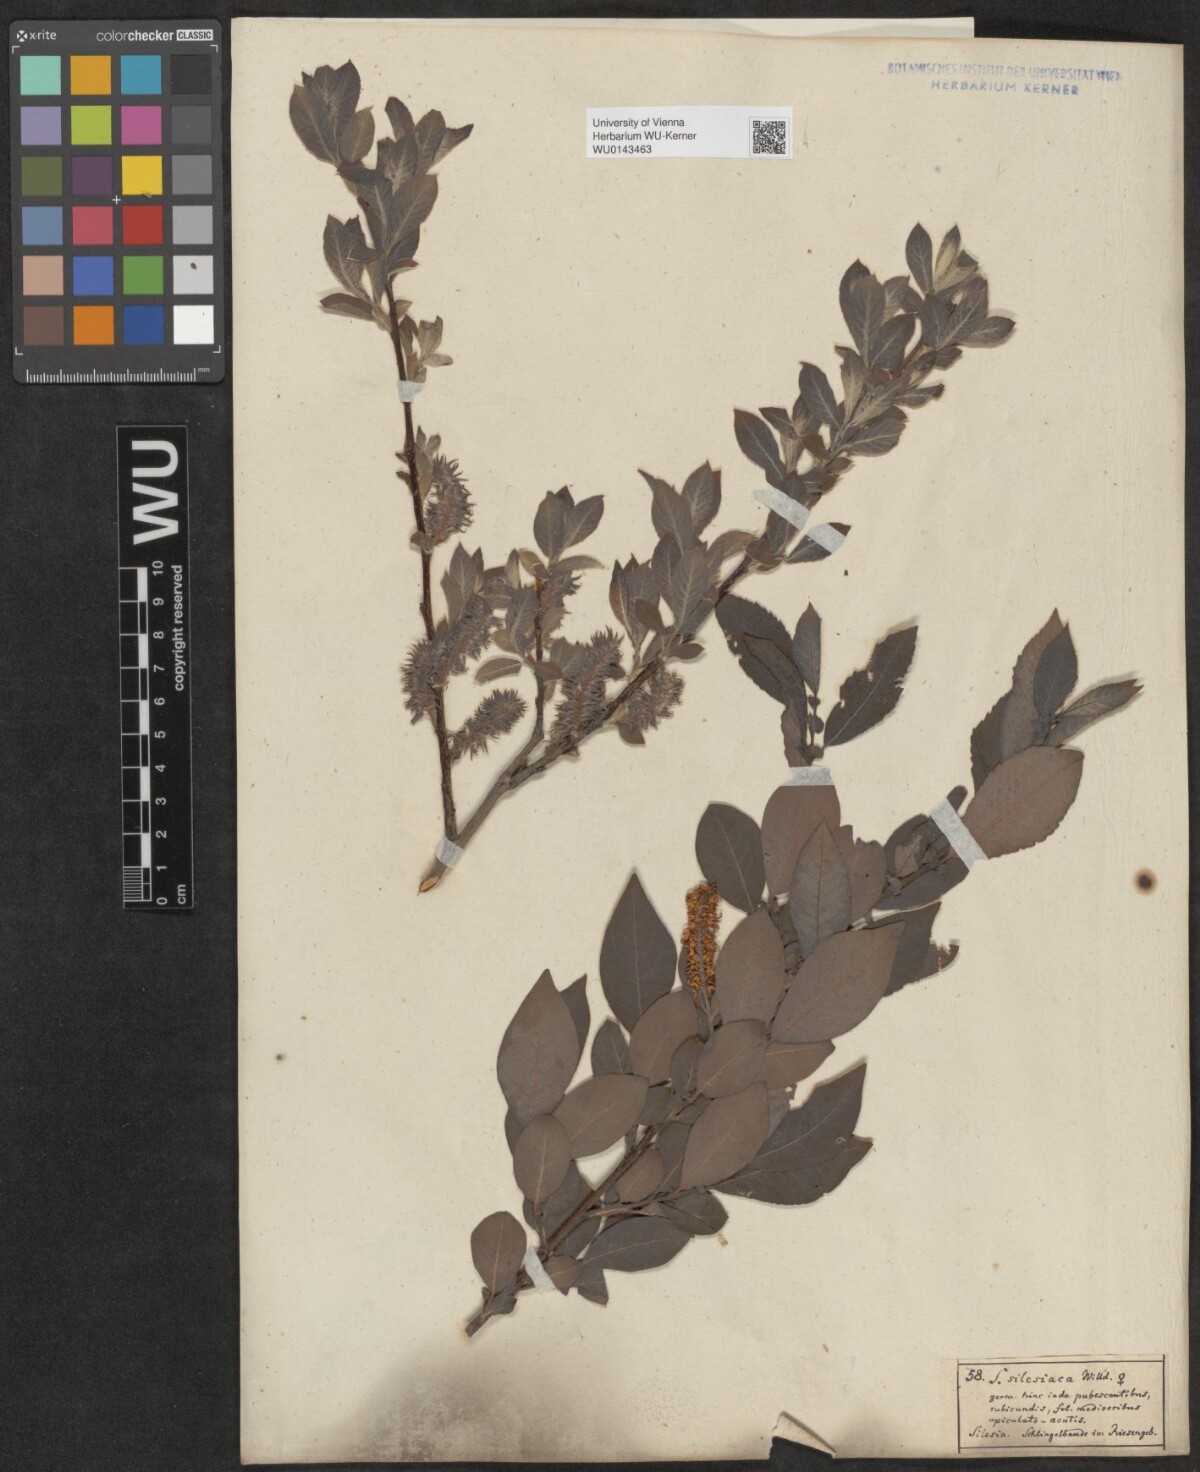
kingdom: Plantae
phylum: Tracheophyta
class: Magnoliopsida
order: Malpighiales
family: Salicaceae
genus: Salix
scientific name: Salix silesiaca
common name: Silesian willow
